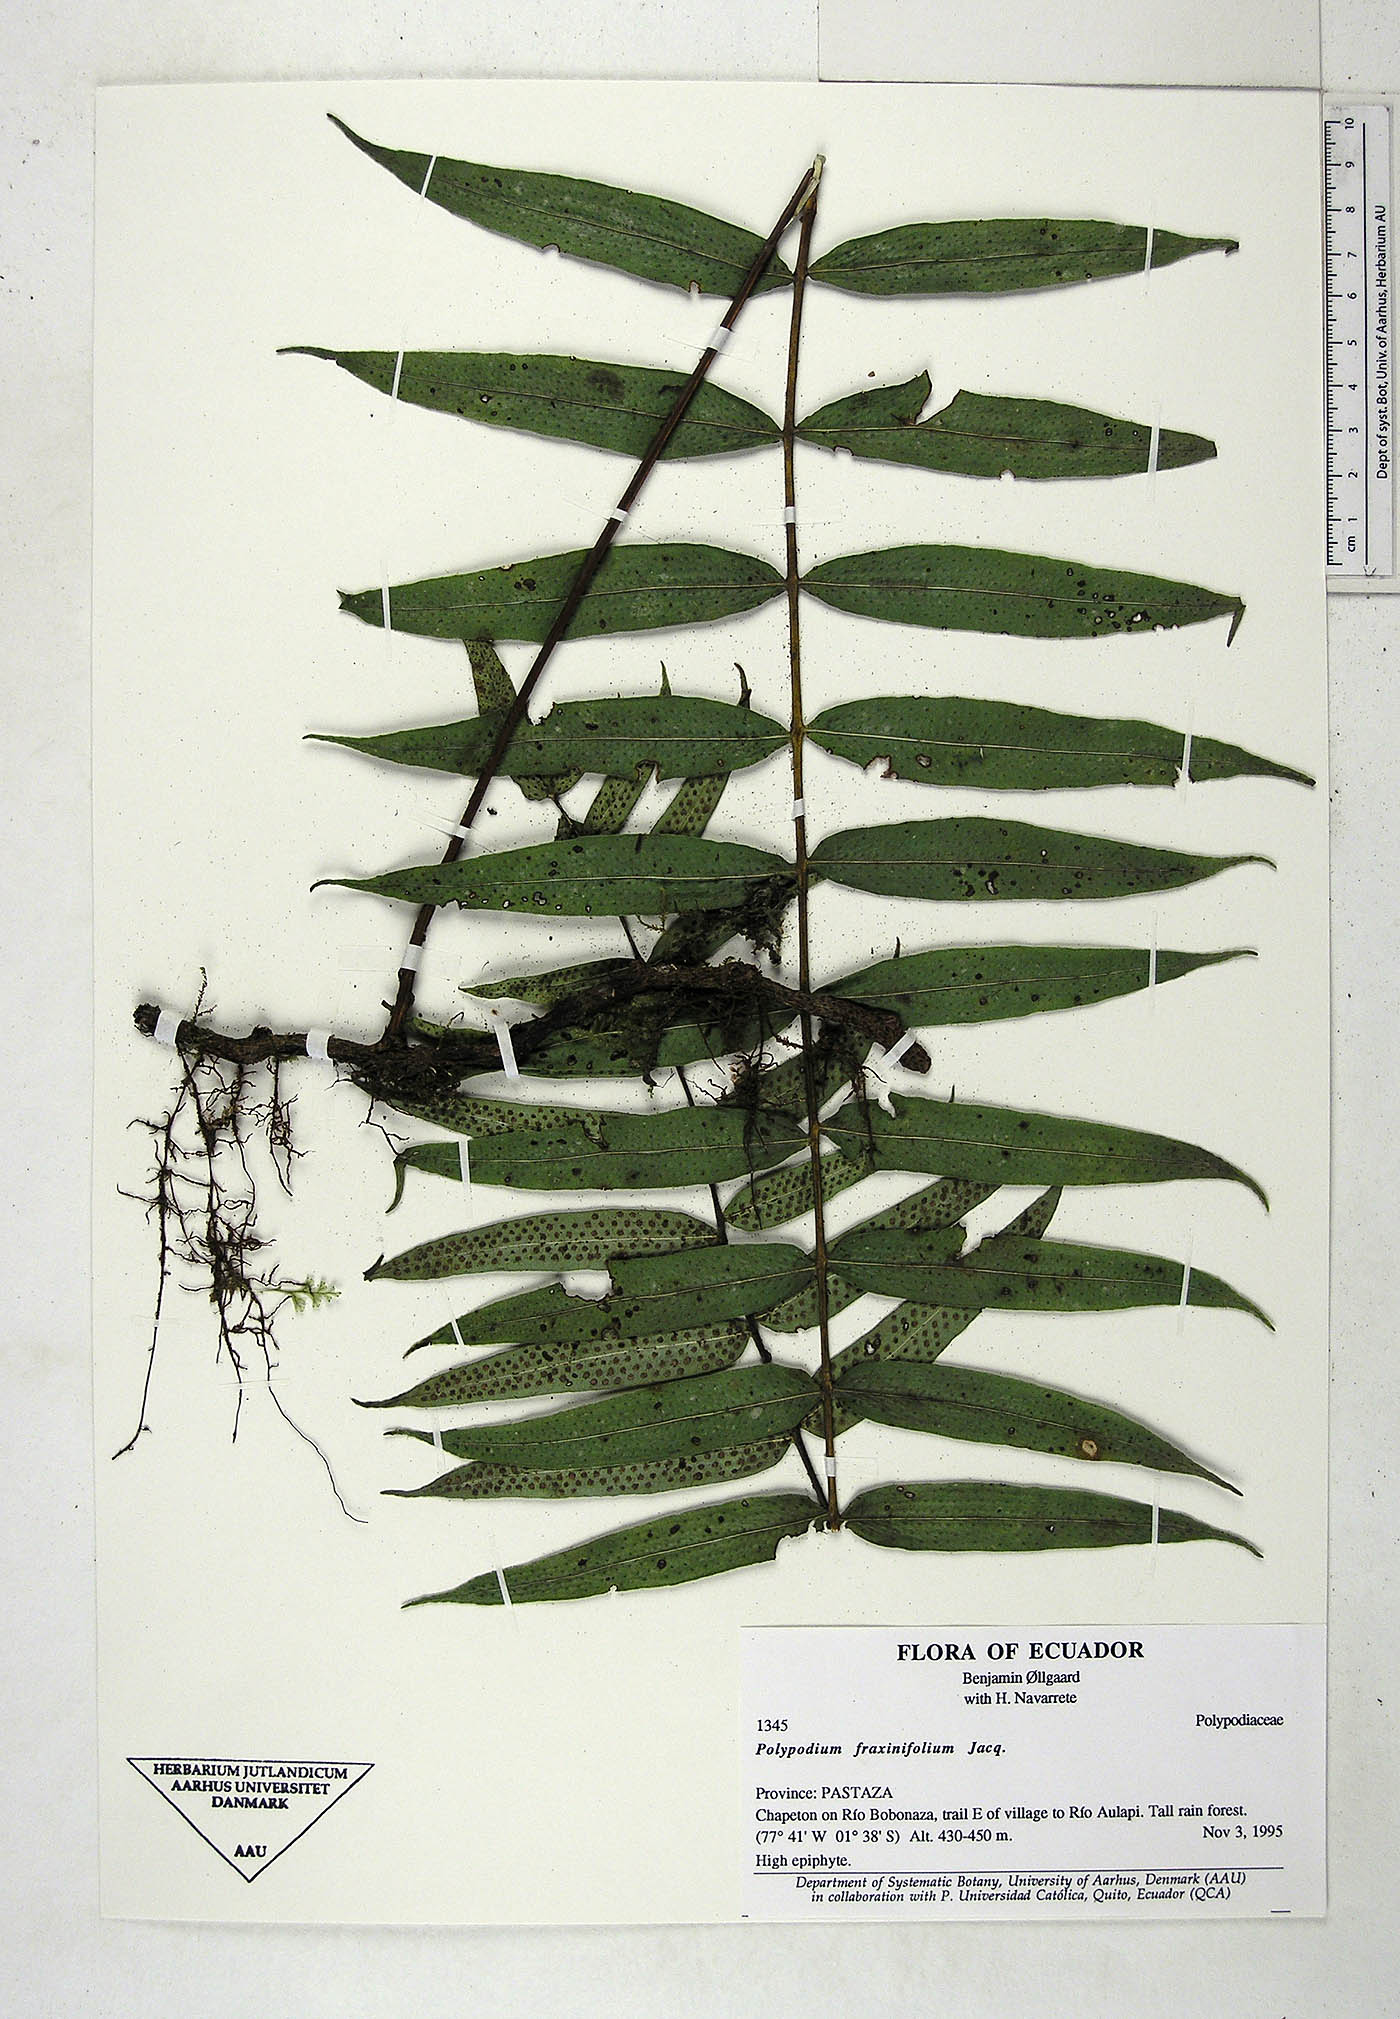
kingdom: Plantae
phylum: Tracheophyta
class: Polypodiopsida
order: Polypodiales
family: Polypodiaceae
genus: Serpocaulon
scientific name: Serpocaulon fraxinifolium
